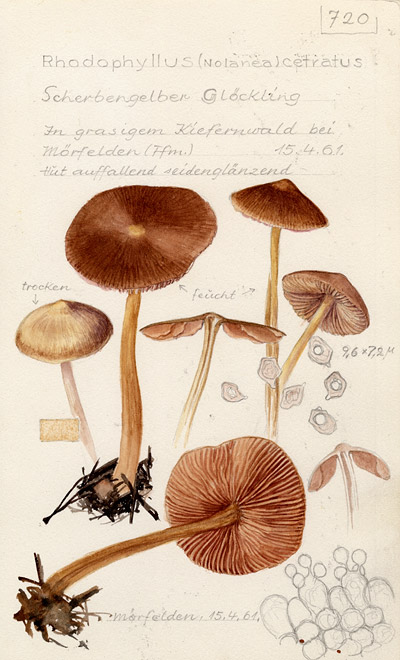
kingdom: Fungi
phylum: Basidiomycota
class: Agaricomycetes
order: Agaricales
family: Entolomataceae
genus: Entoloma
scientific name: Entoloma cetratum
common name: Honey pinkgill
